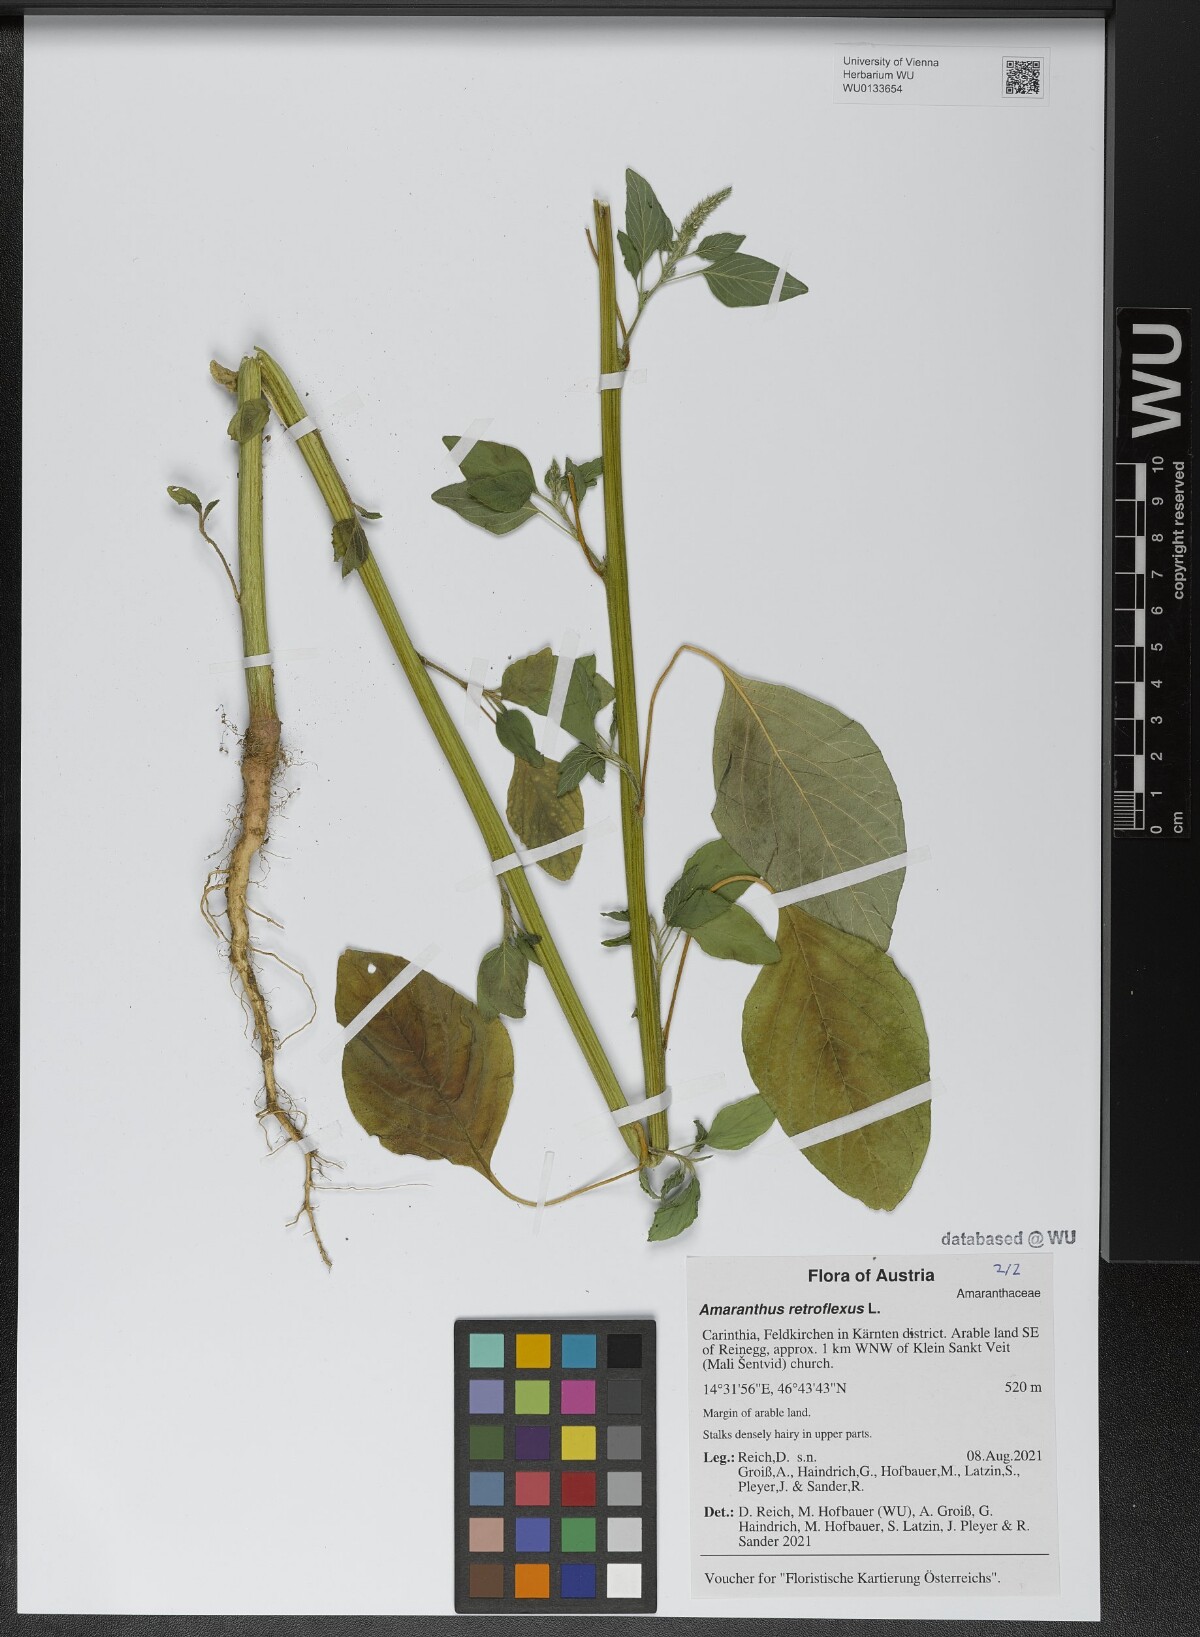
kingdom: Plantae
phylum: Tracheophyta
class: Magnoliopsida
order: Caryophyllales
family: Amaranthaceae
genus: Amaranthus
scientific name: Amaranthus retroflexus
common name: Redroot amaranth
